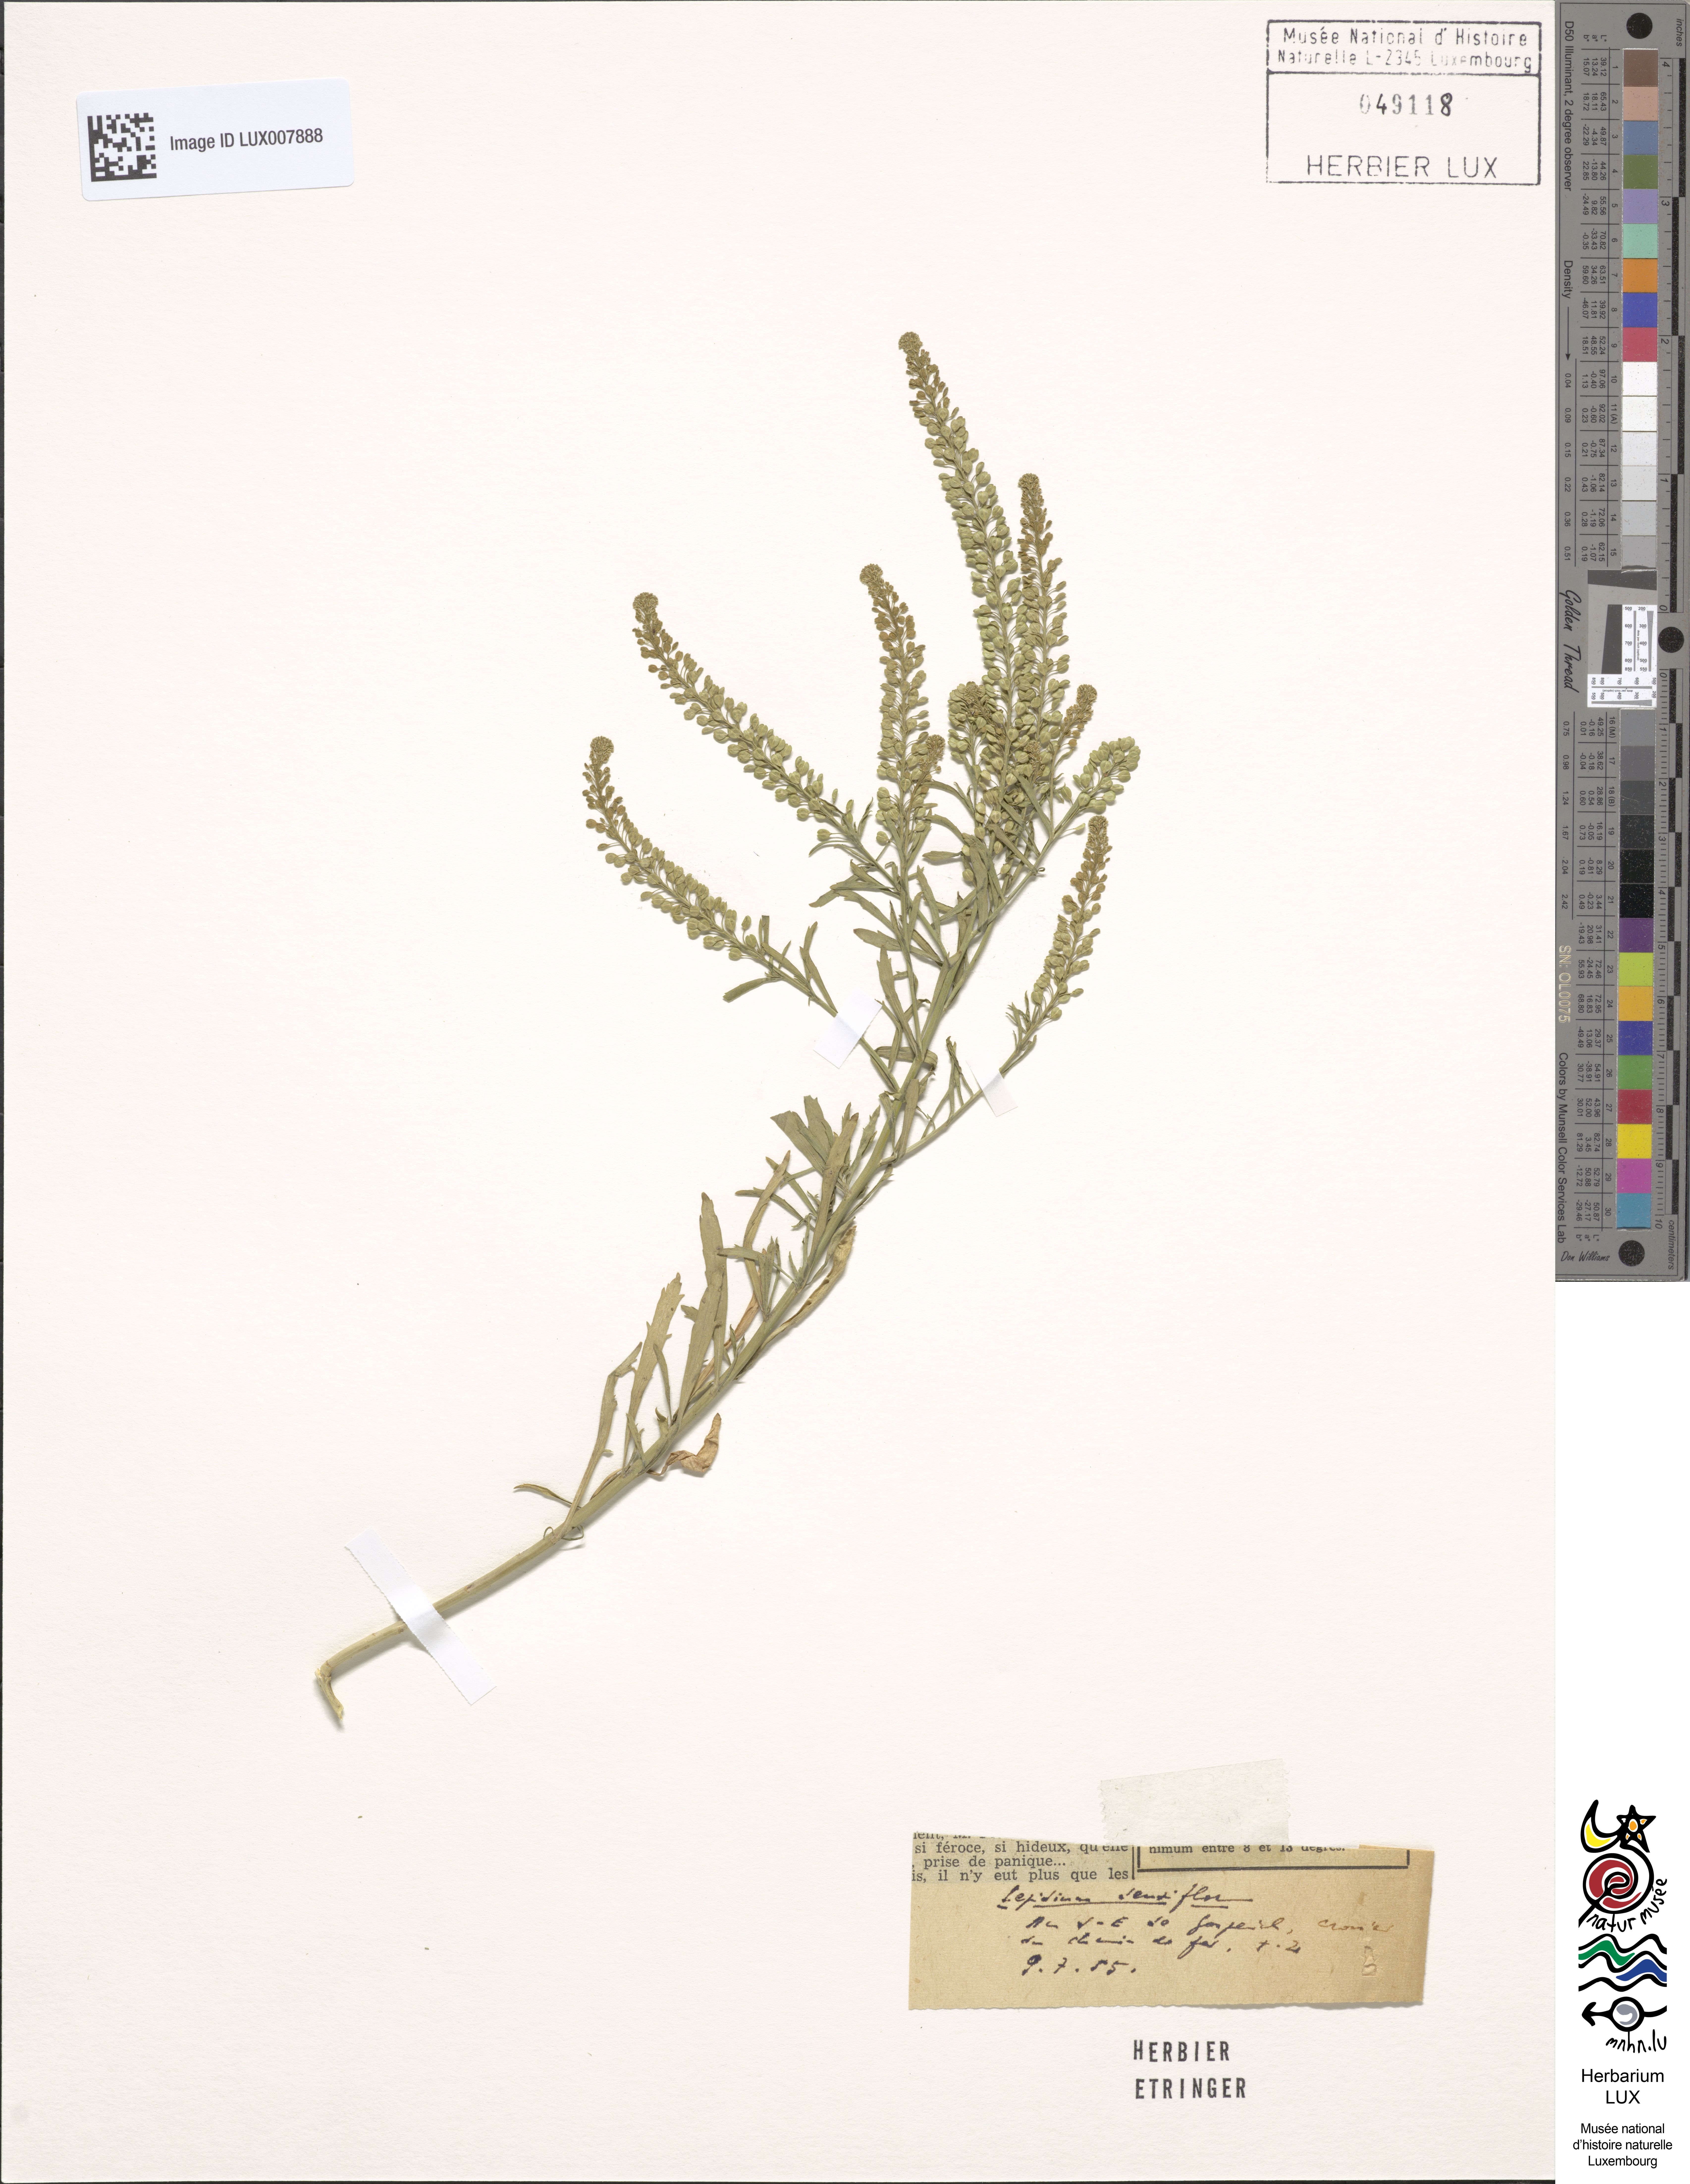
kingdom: Plantae
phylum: Tracheophyta
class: Magnoliopsida
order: Brassicales
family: Brassicaceae
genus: Lepidium
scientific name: Lepidium densiflorum
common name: Miner's pepperwort
